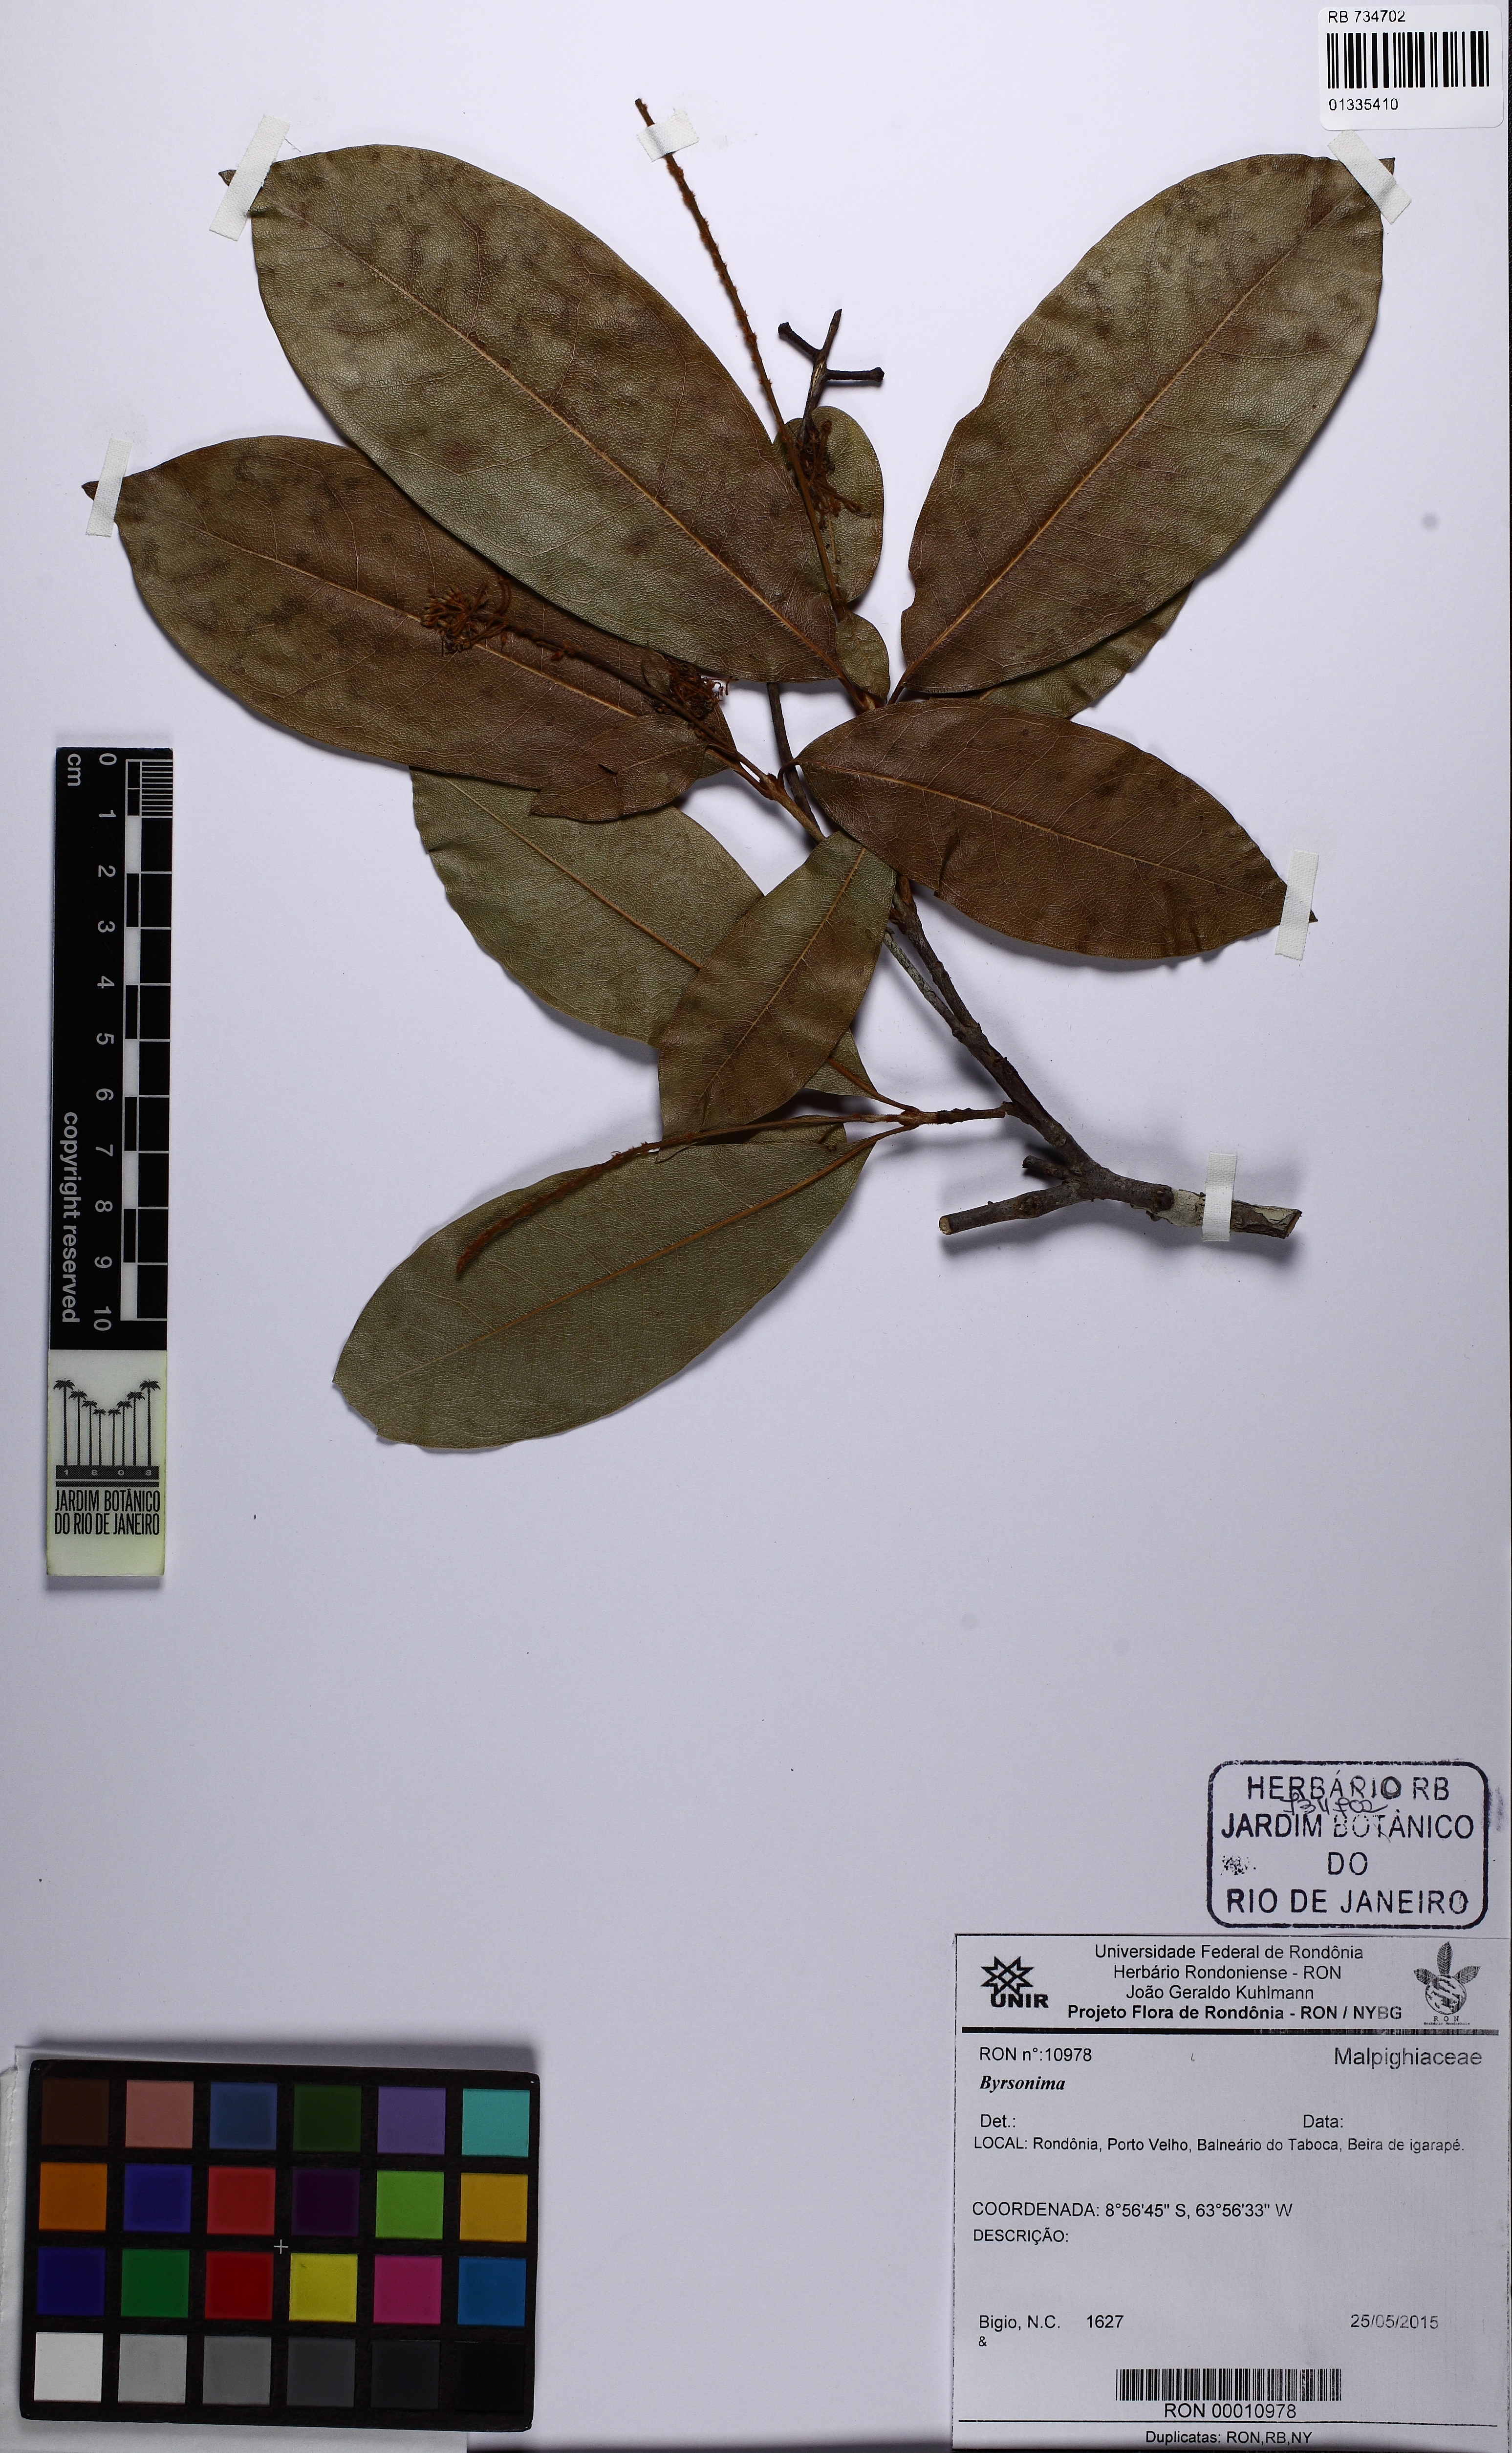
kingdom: Plantae
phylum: Tracheophyta
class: Magnoliopsida
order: Malpighiales
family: Malpighiaceae
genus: Byrsonima
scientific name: Byrsonima
